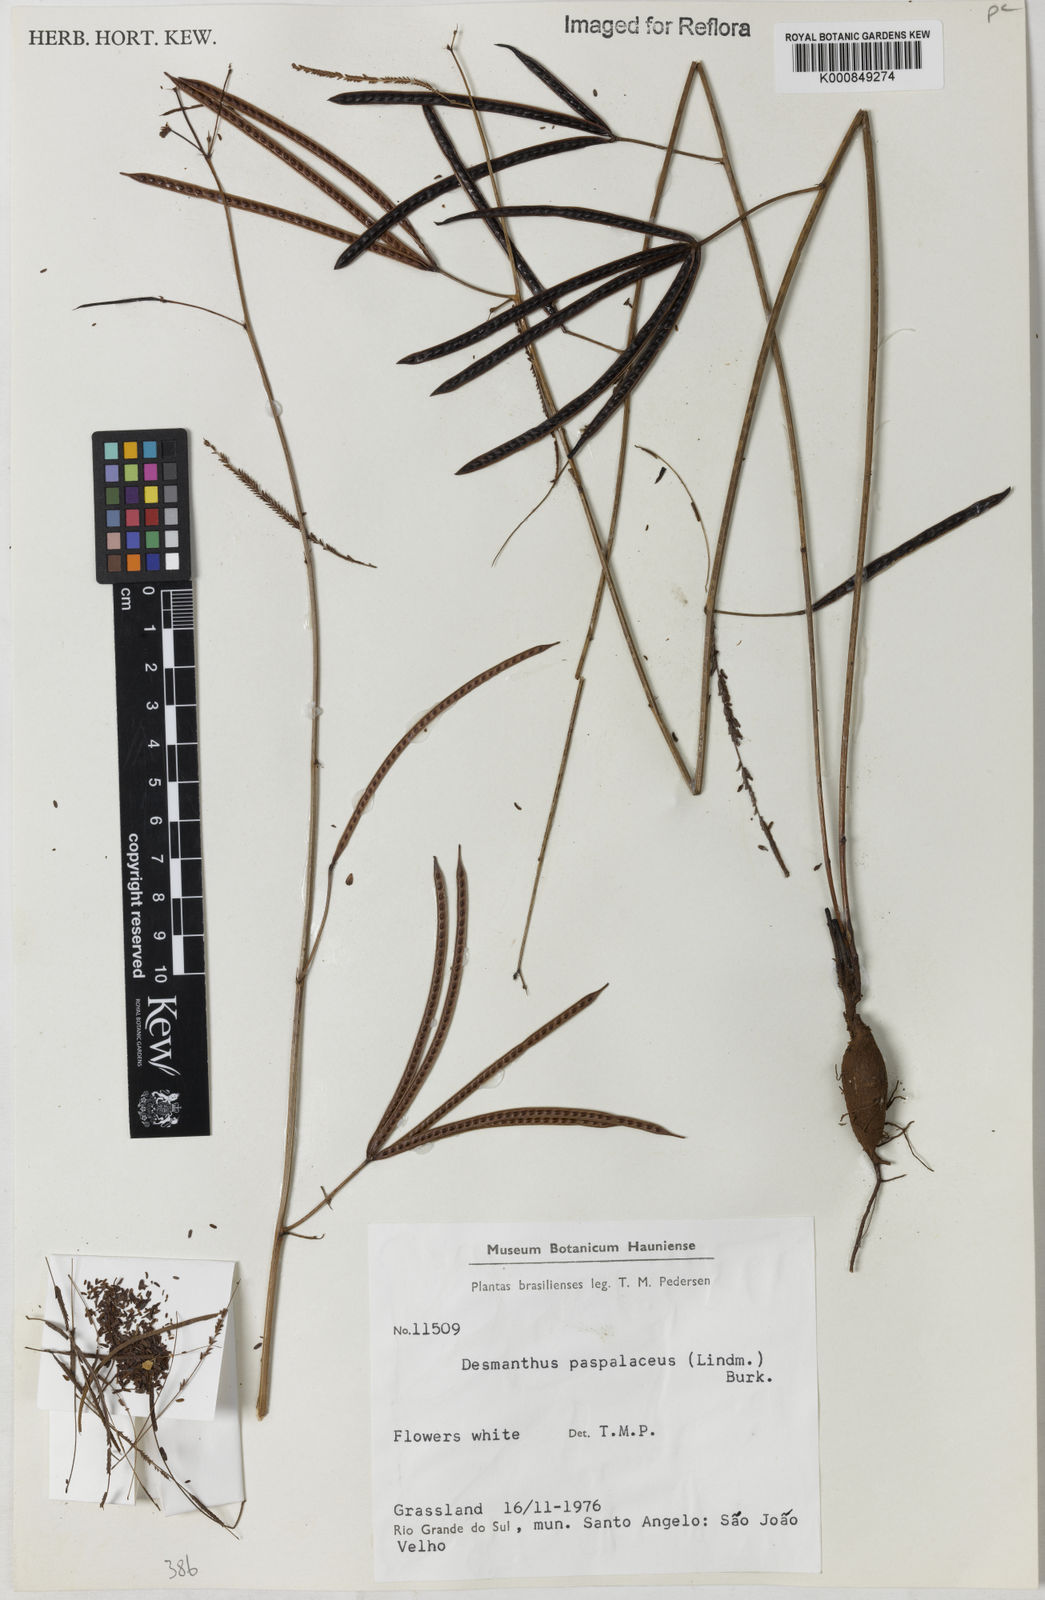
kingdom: Plantae
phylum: Tracheophyta
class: Magnoliopsida
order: Fabales
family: Fabaceae
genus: Desmanthus
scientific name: Desmanthus paspalaceus
